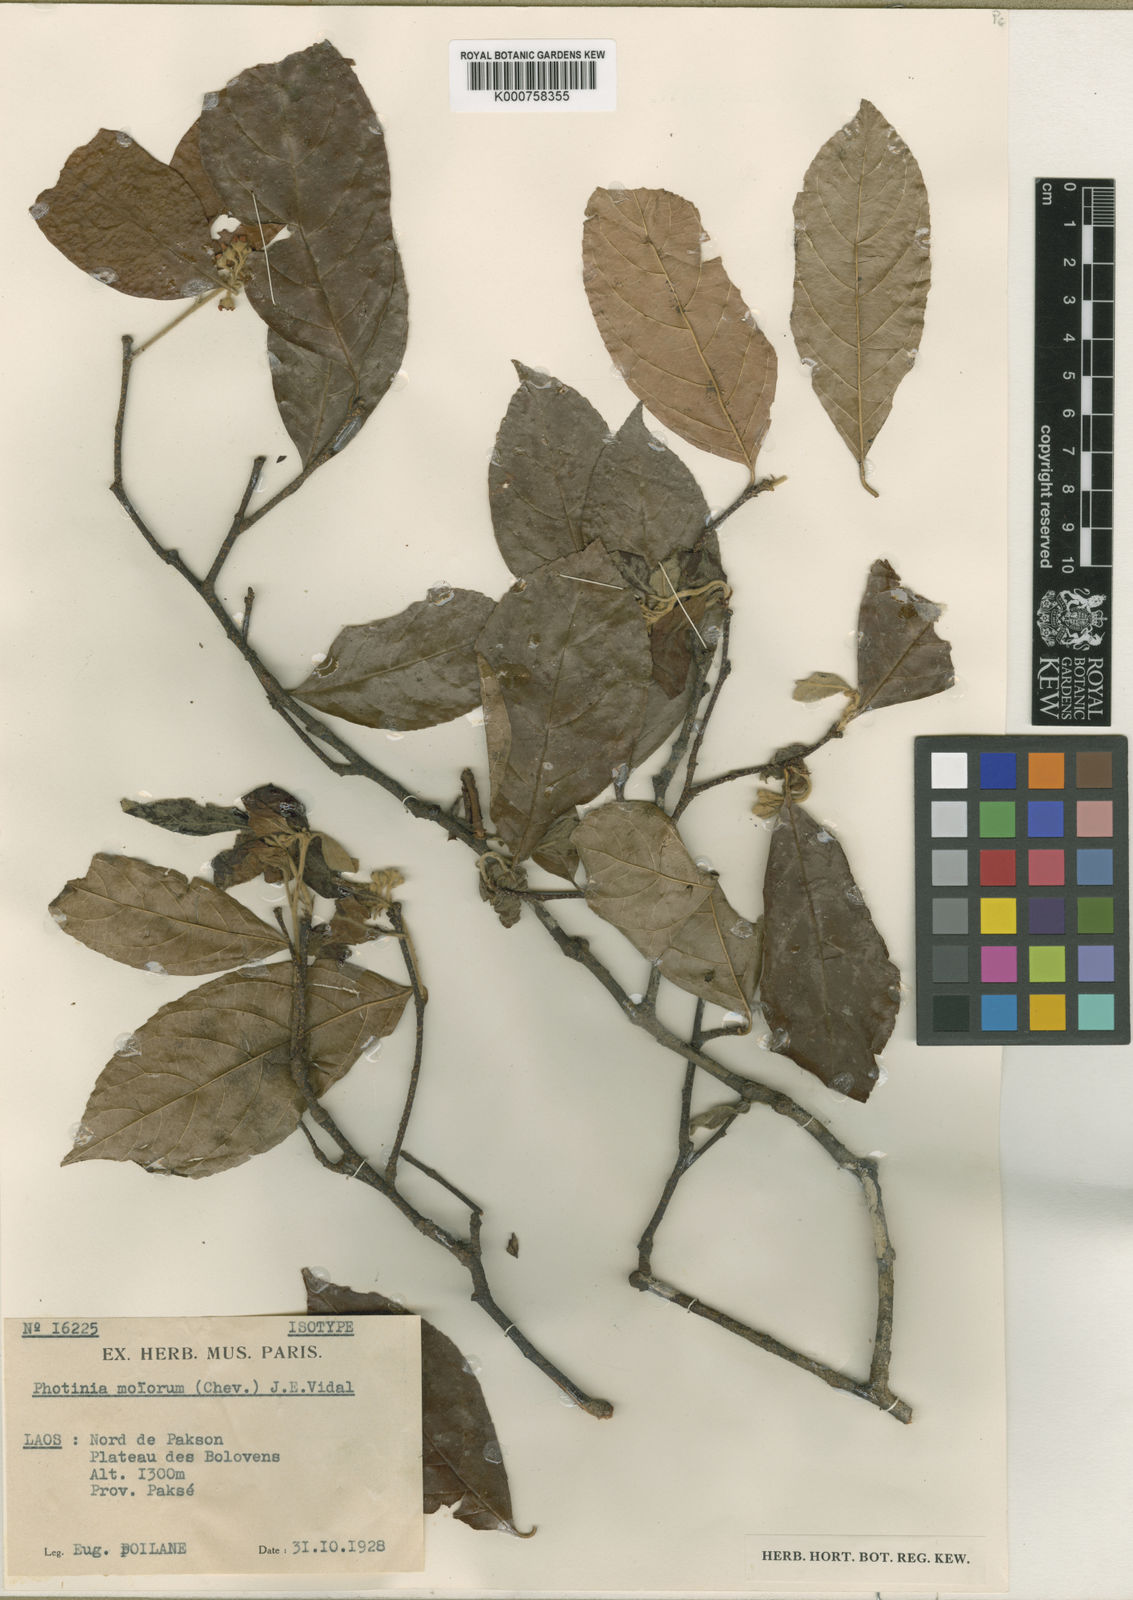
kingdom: Plantae
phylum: Tracheophyta
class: Magnoliopsida
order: Rosales
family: Rosaceae
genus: Pourthiaea
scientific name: Pourthiaea arguta
